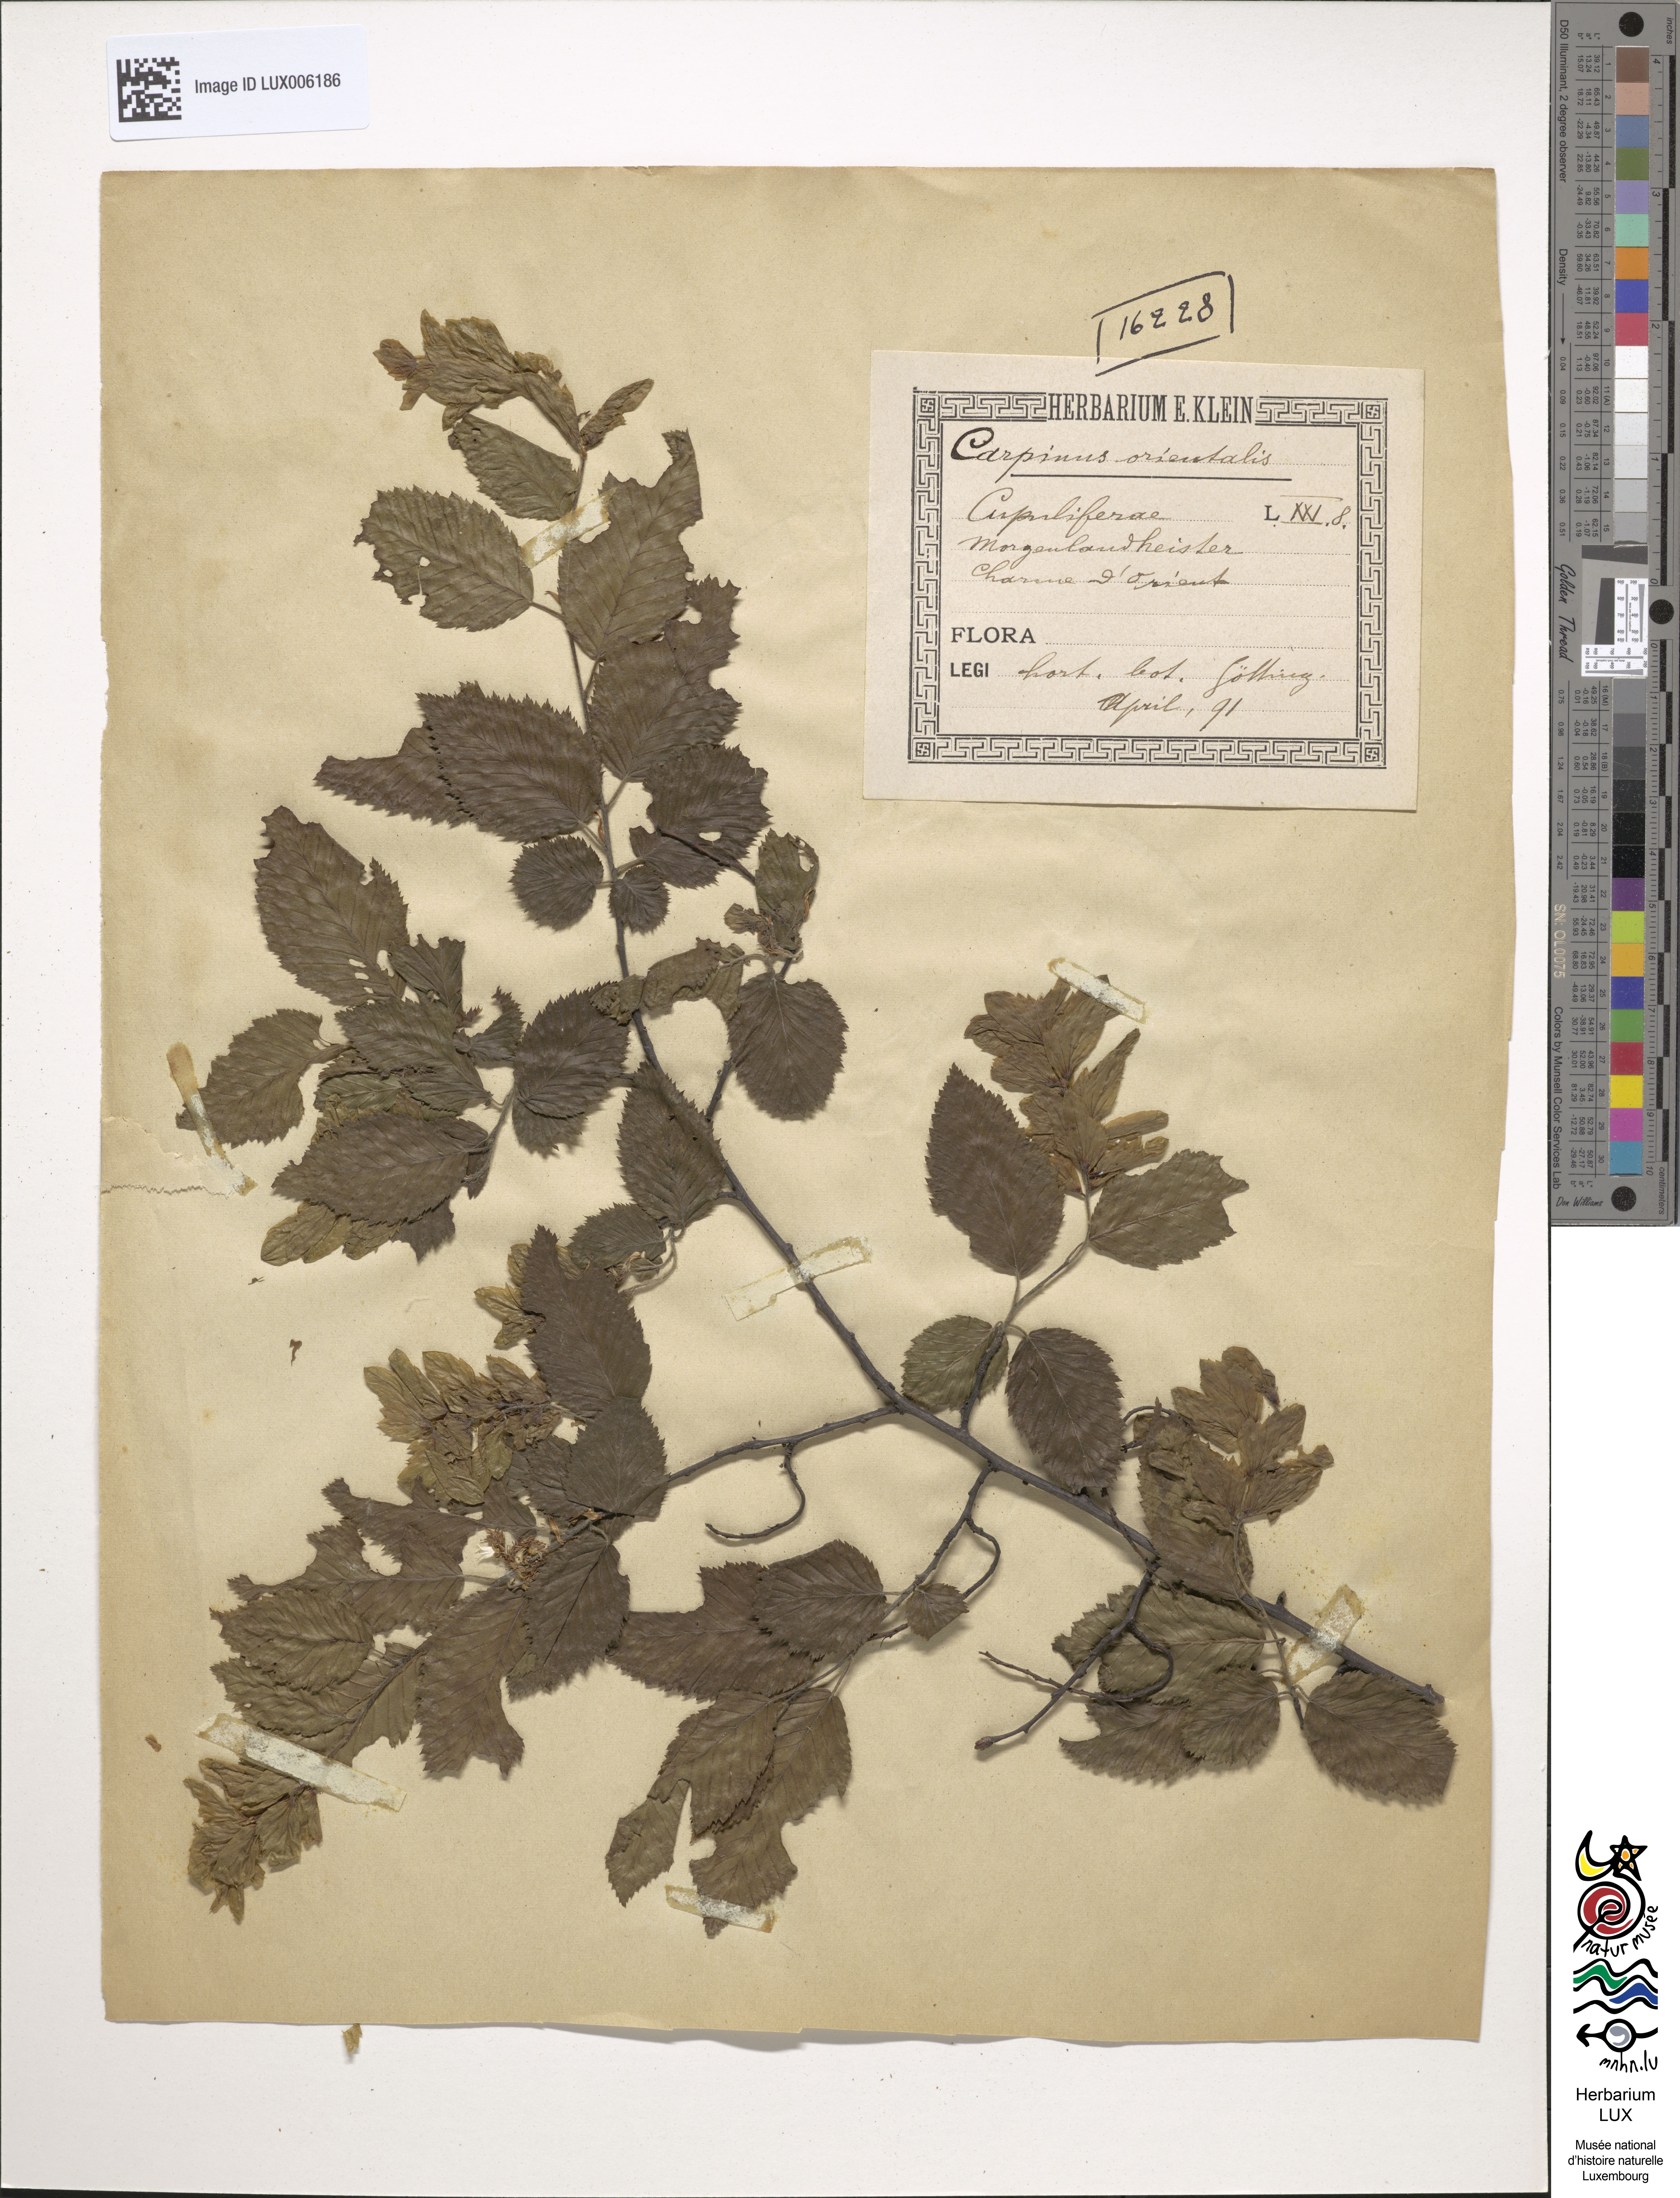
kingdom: Plantae
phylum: Tracheophyta
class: Magnoliopsida
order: Fagales
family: Betulaceae
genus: Carpinus
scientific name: Carpinus orientalis
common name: Eastern hornbeam
